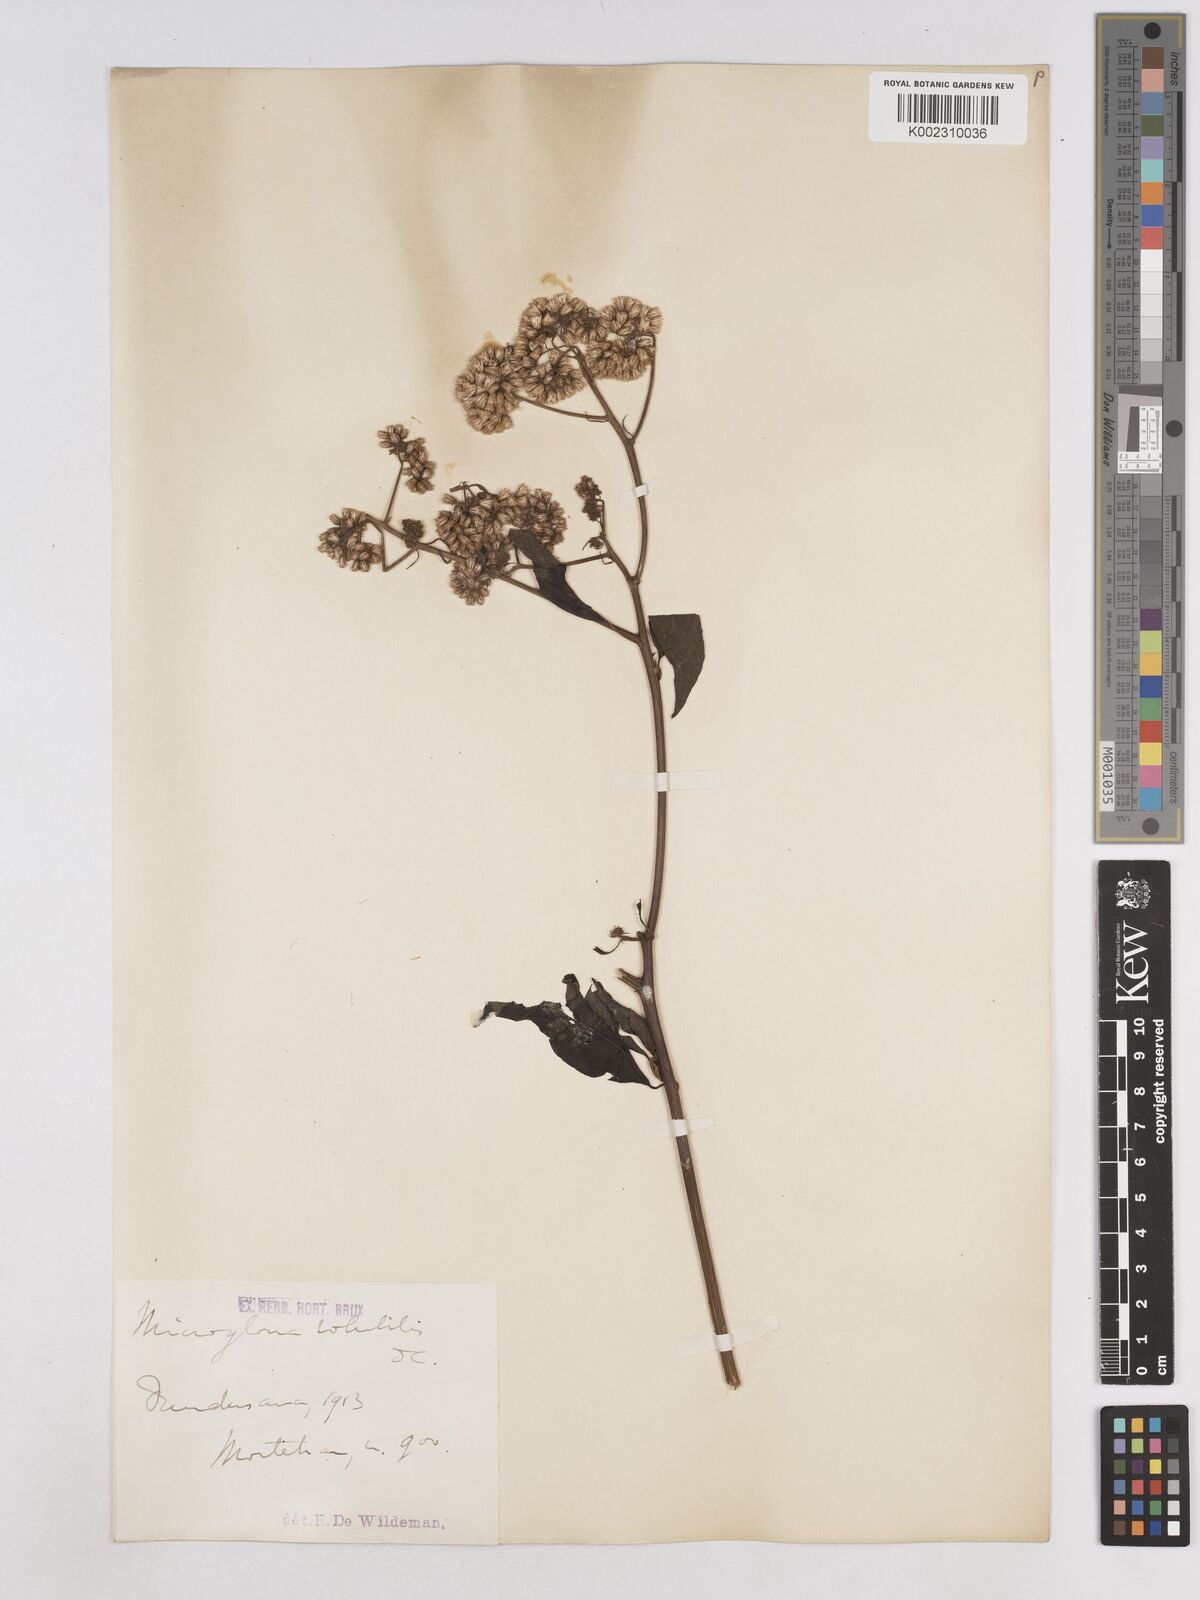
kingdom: Plantae
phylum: Tracheophyta
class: Magnoliopsida
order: Asterales
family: Asteraceae
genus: Microglossa
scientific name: Microglossa pyrifolia
